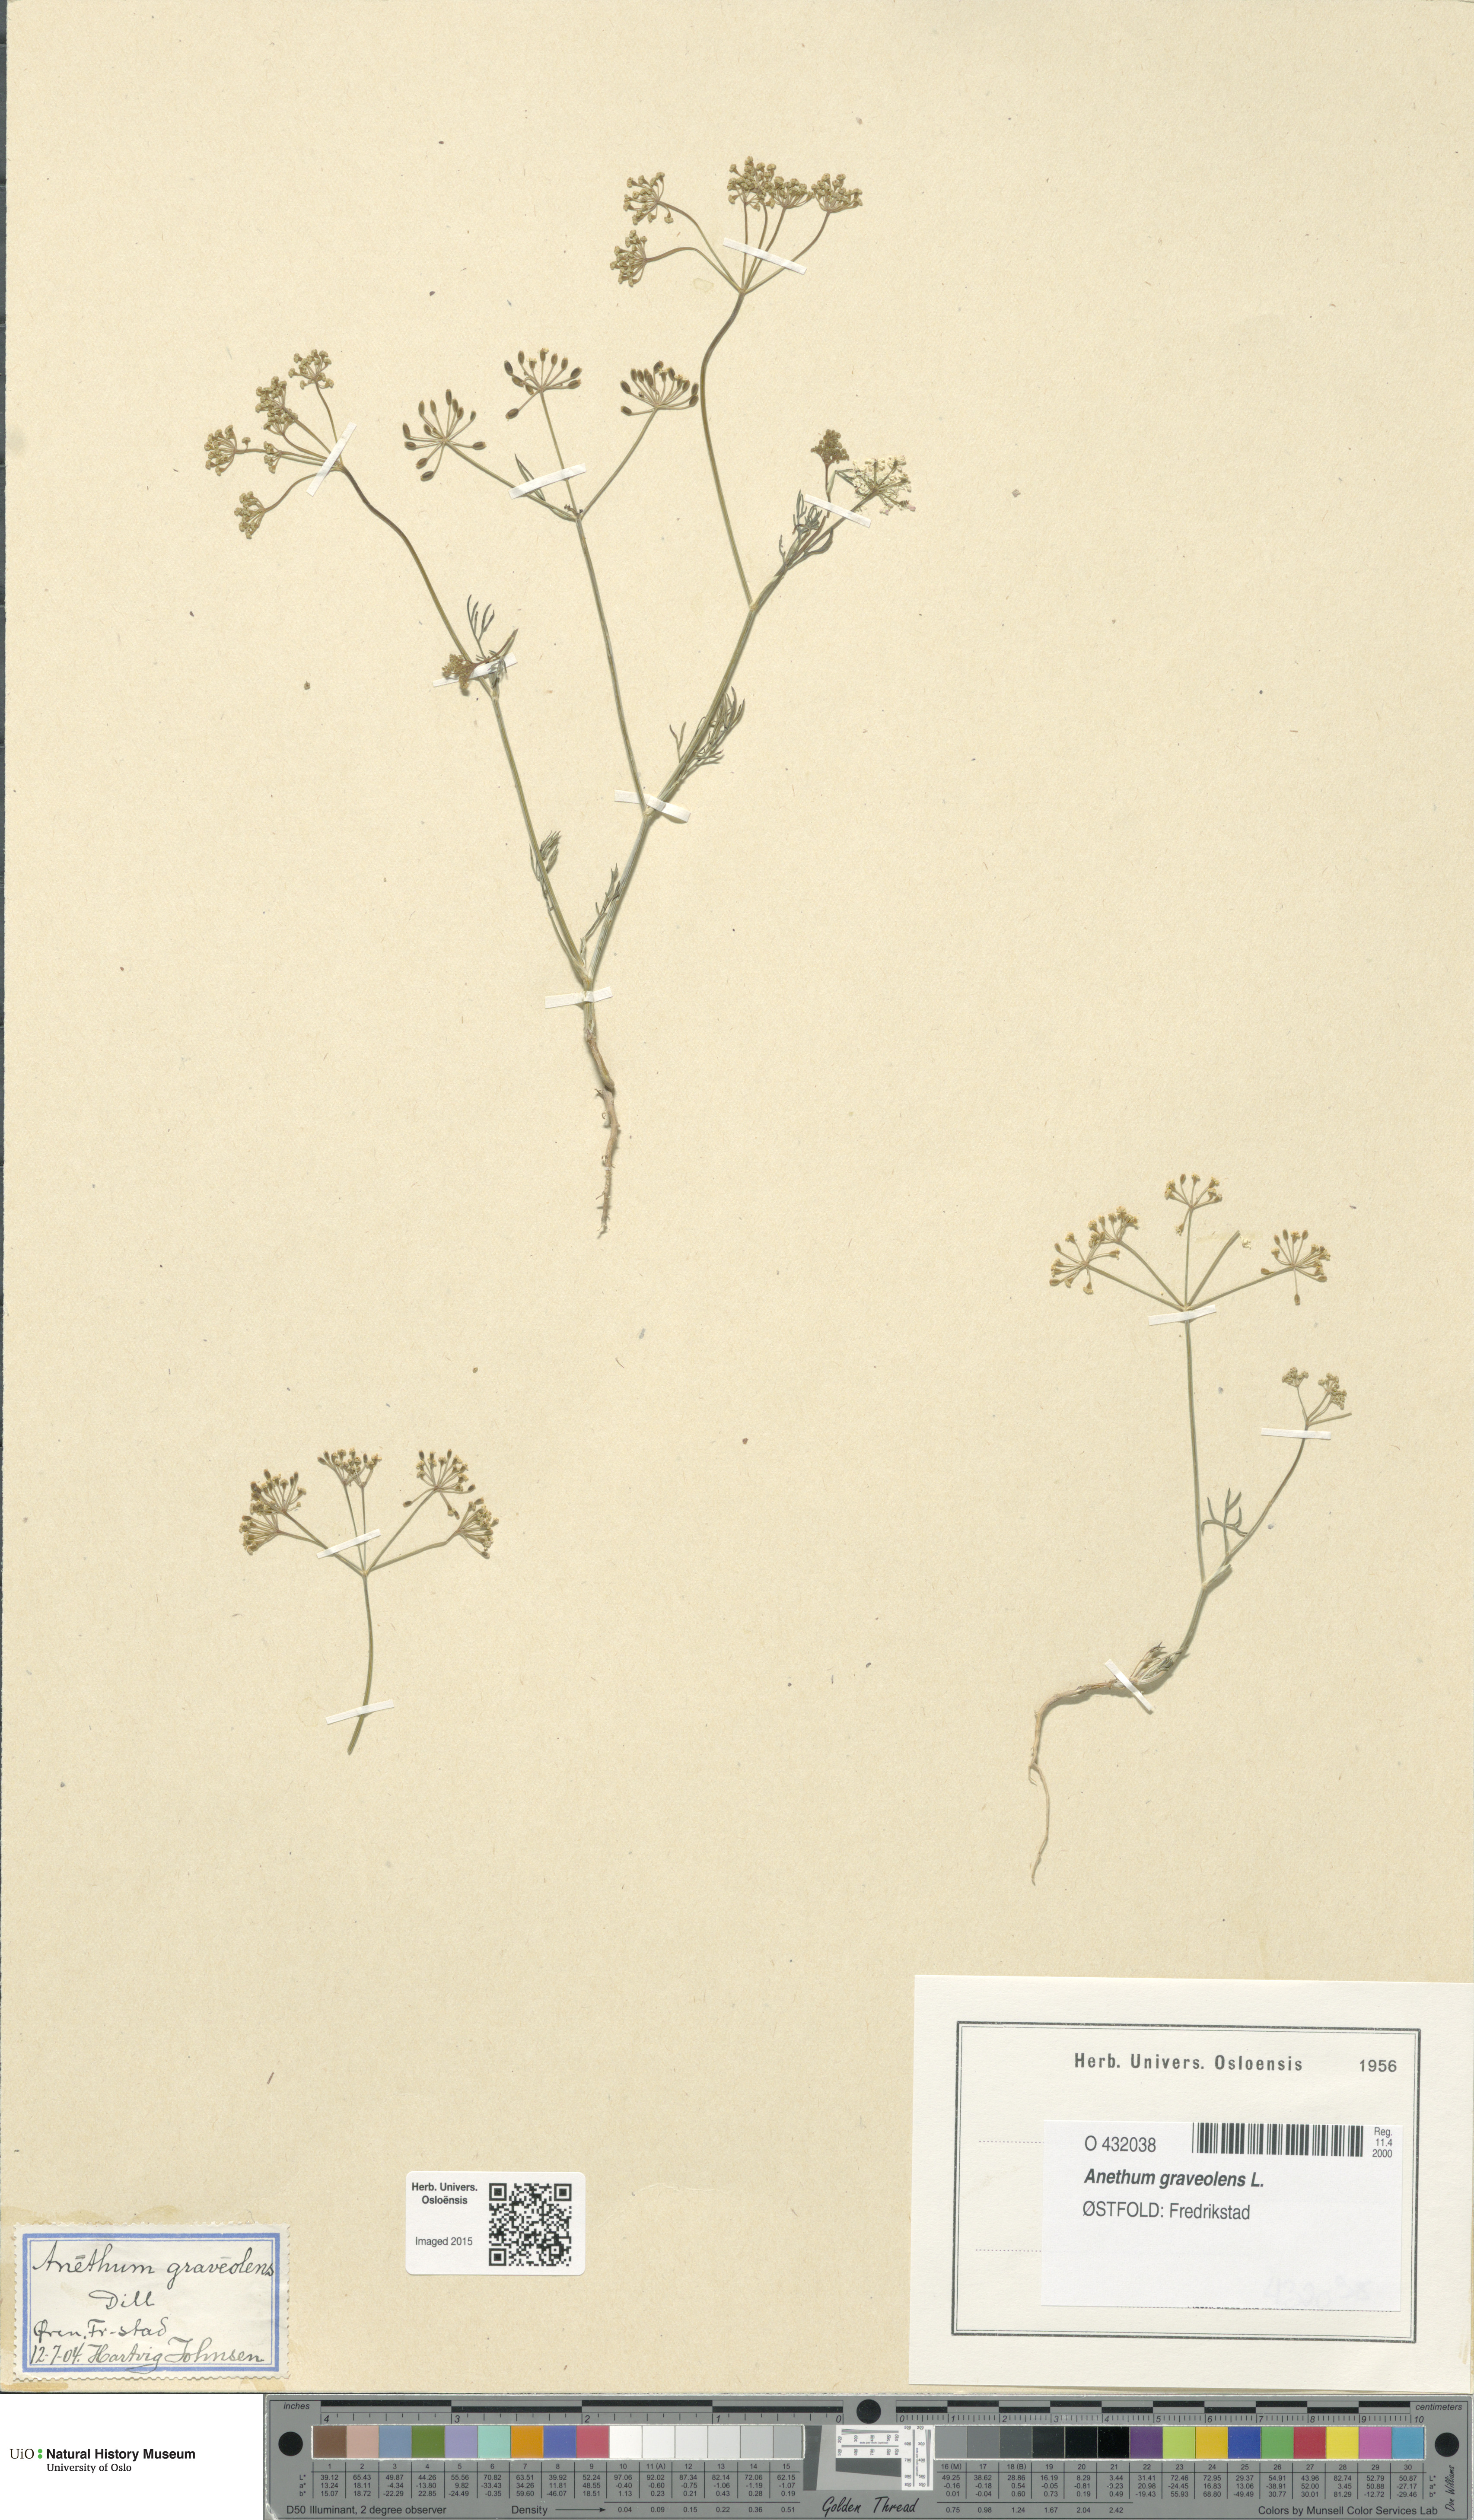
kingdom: Plantae
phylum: Tracheophyta
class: Magnoliopsida
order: Apiales
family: Apiaceae
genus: Anethum
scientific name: Anethum graveolens
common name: Dill
